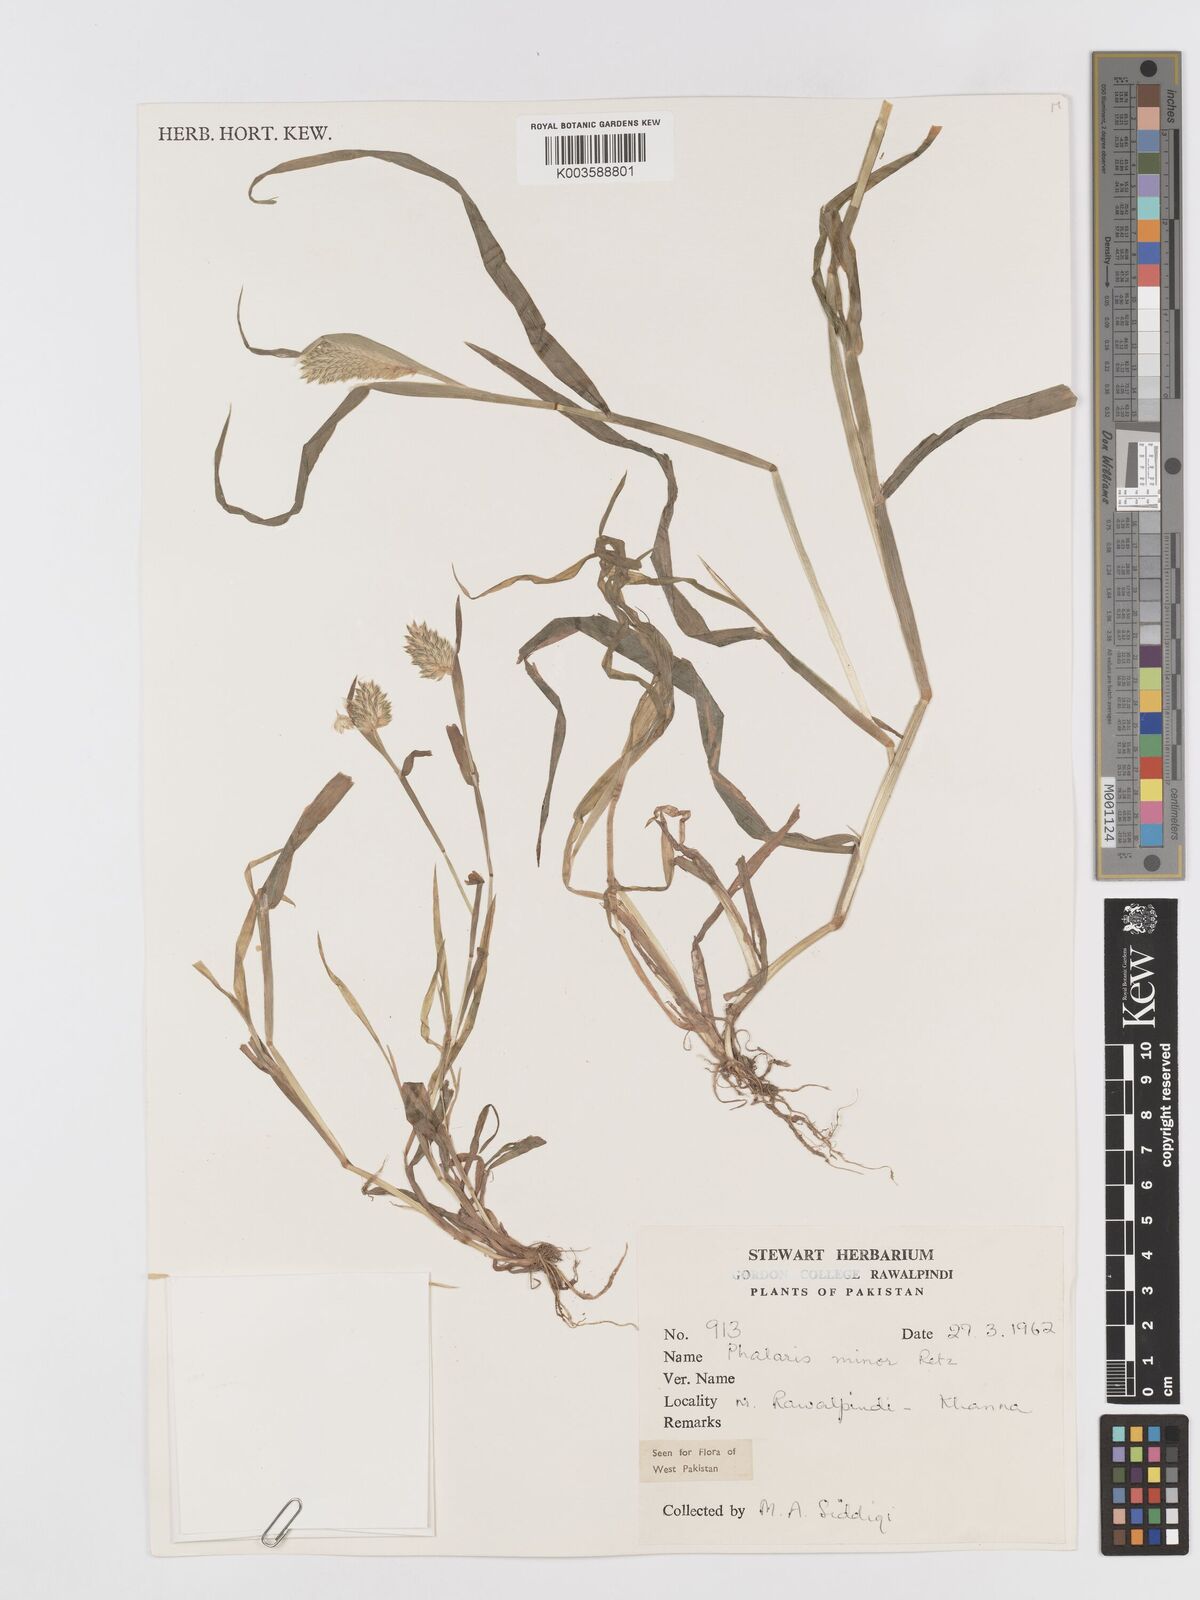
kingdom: Plantae
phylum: Tracheophyta
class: Liliopsida
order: Poales
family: Poaceae
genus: Phalaris
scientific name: Phalaris minor
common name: Littleseed canarygrass
